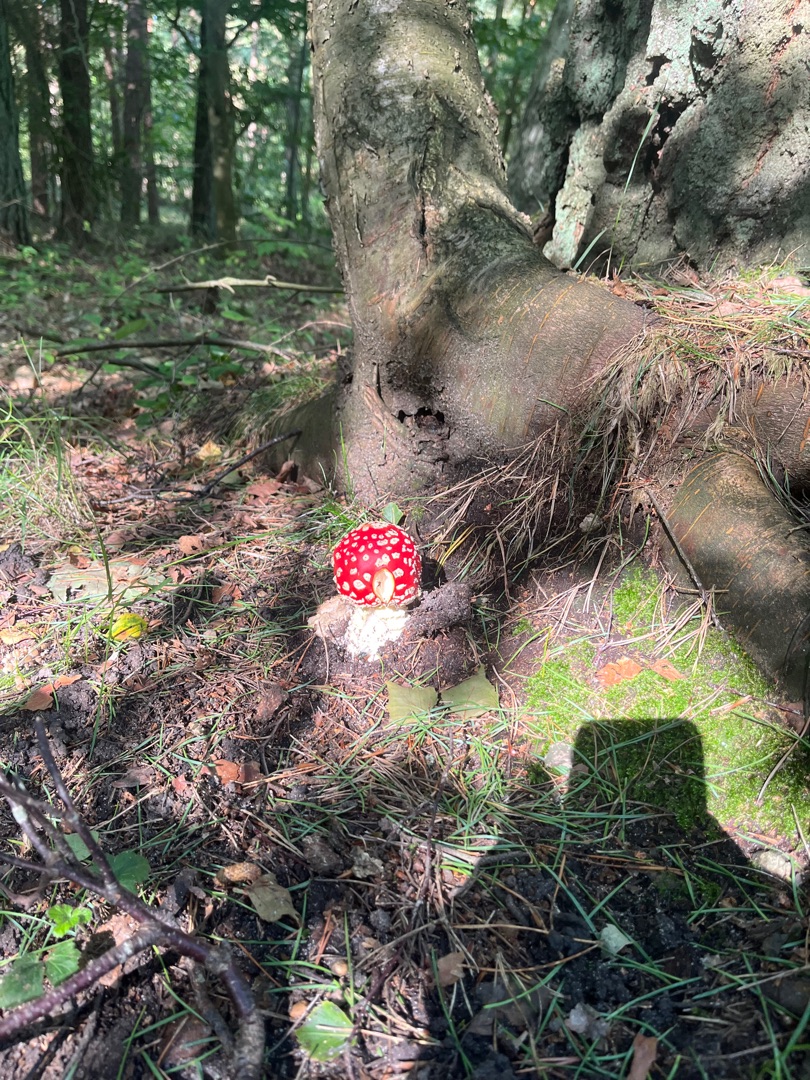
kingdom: Fungi
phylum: Basidiomycota
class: Agaricomycetes
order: Agaricales
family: Amanitaceae
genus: Amanita
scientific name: Amanita muscaria
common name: Rød fluesvamp
